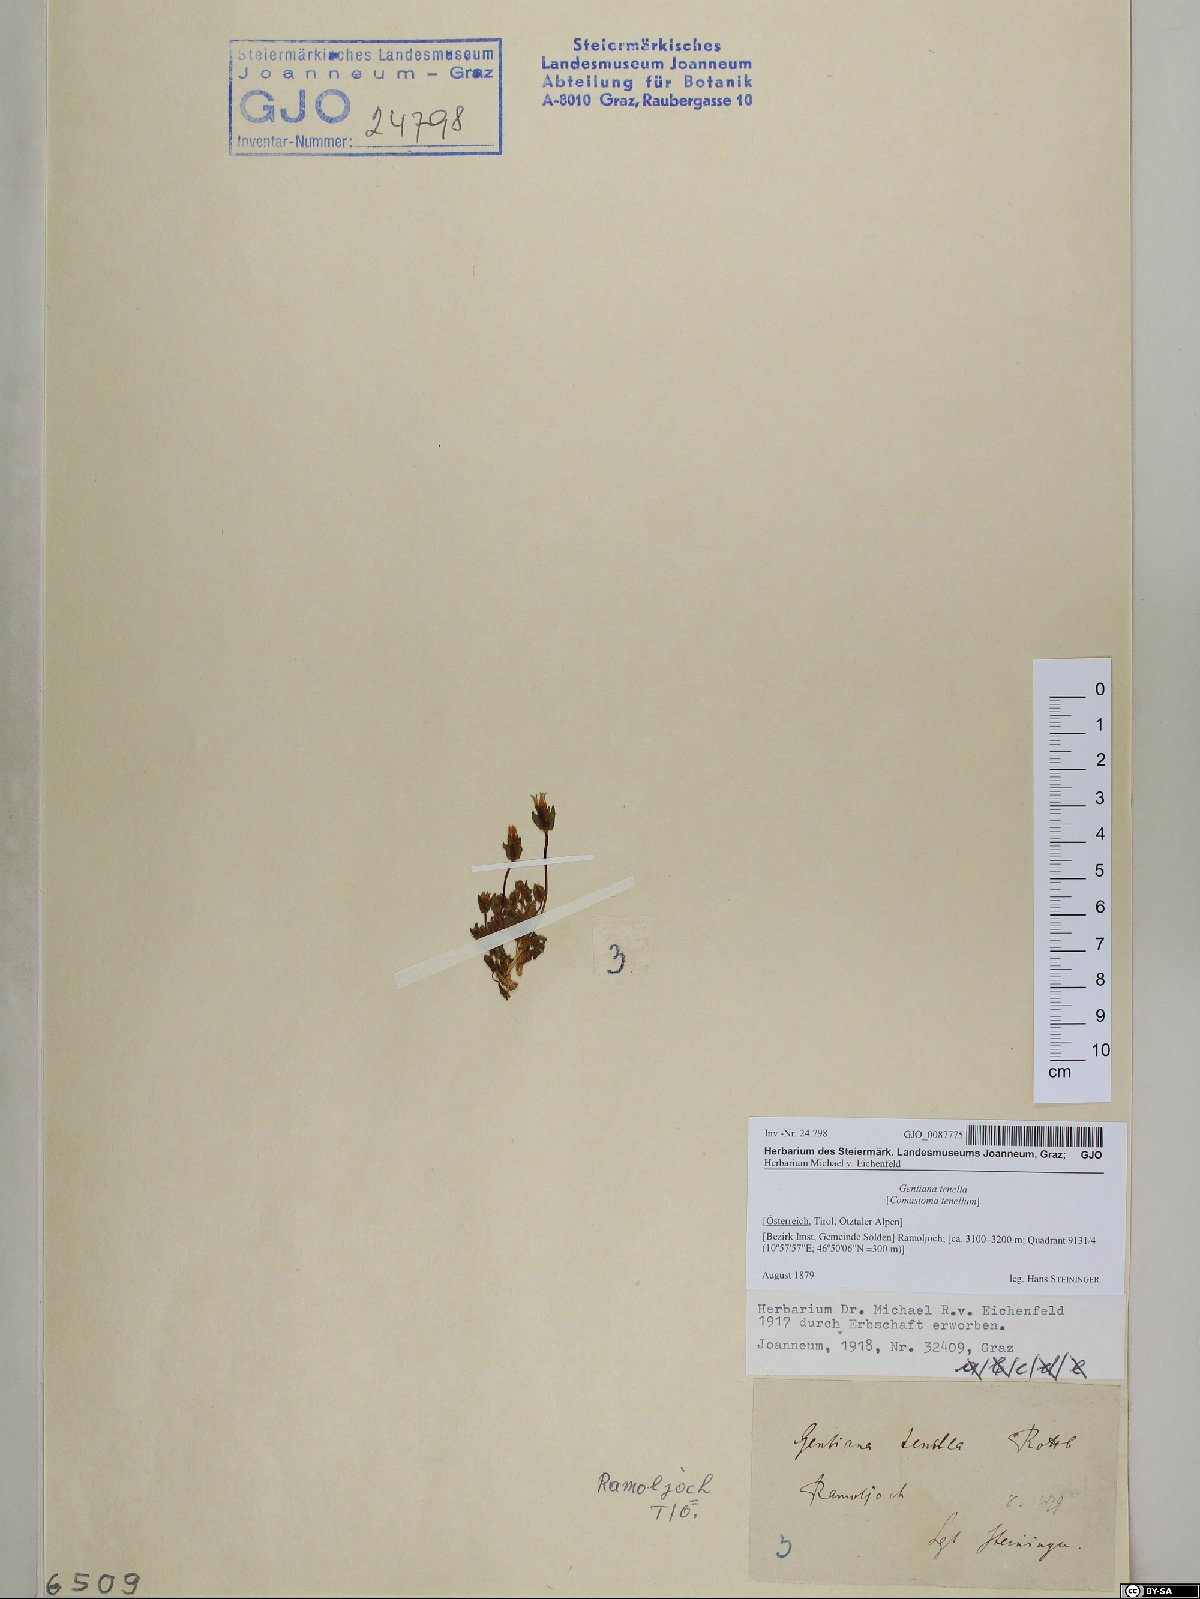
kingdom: Plantae
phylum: Tracheophyta
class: Magnoliopsida
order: Gentianales
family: Gentianaceae
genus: Comastoma
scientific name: Comastoma tenellum
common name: Dane's dwarf gentian
